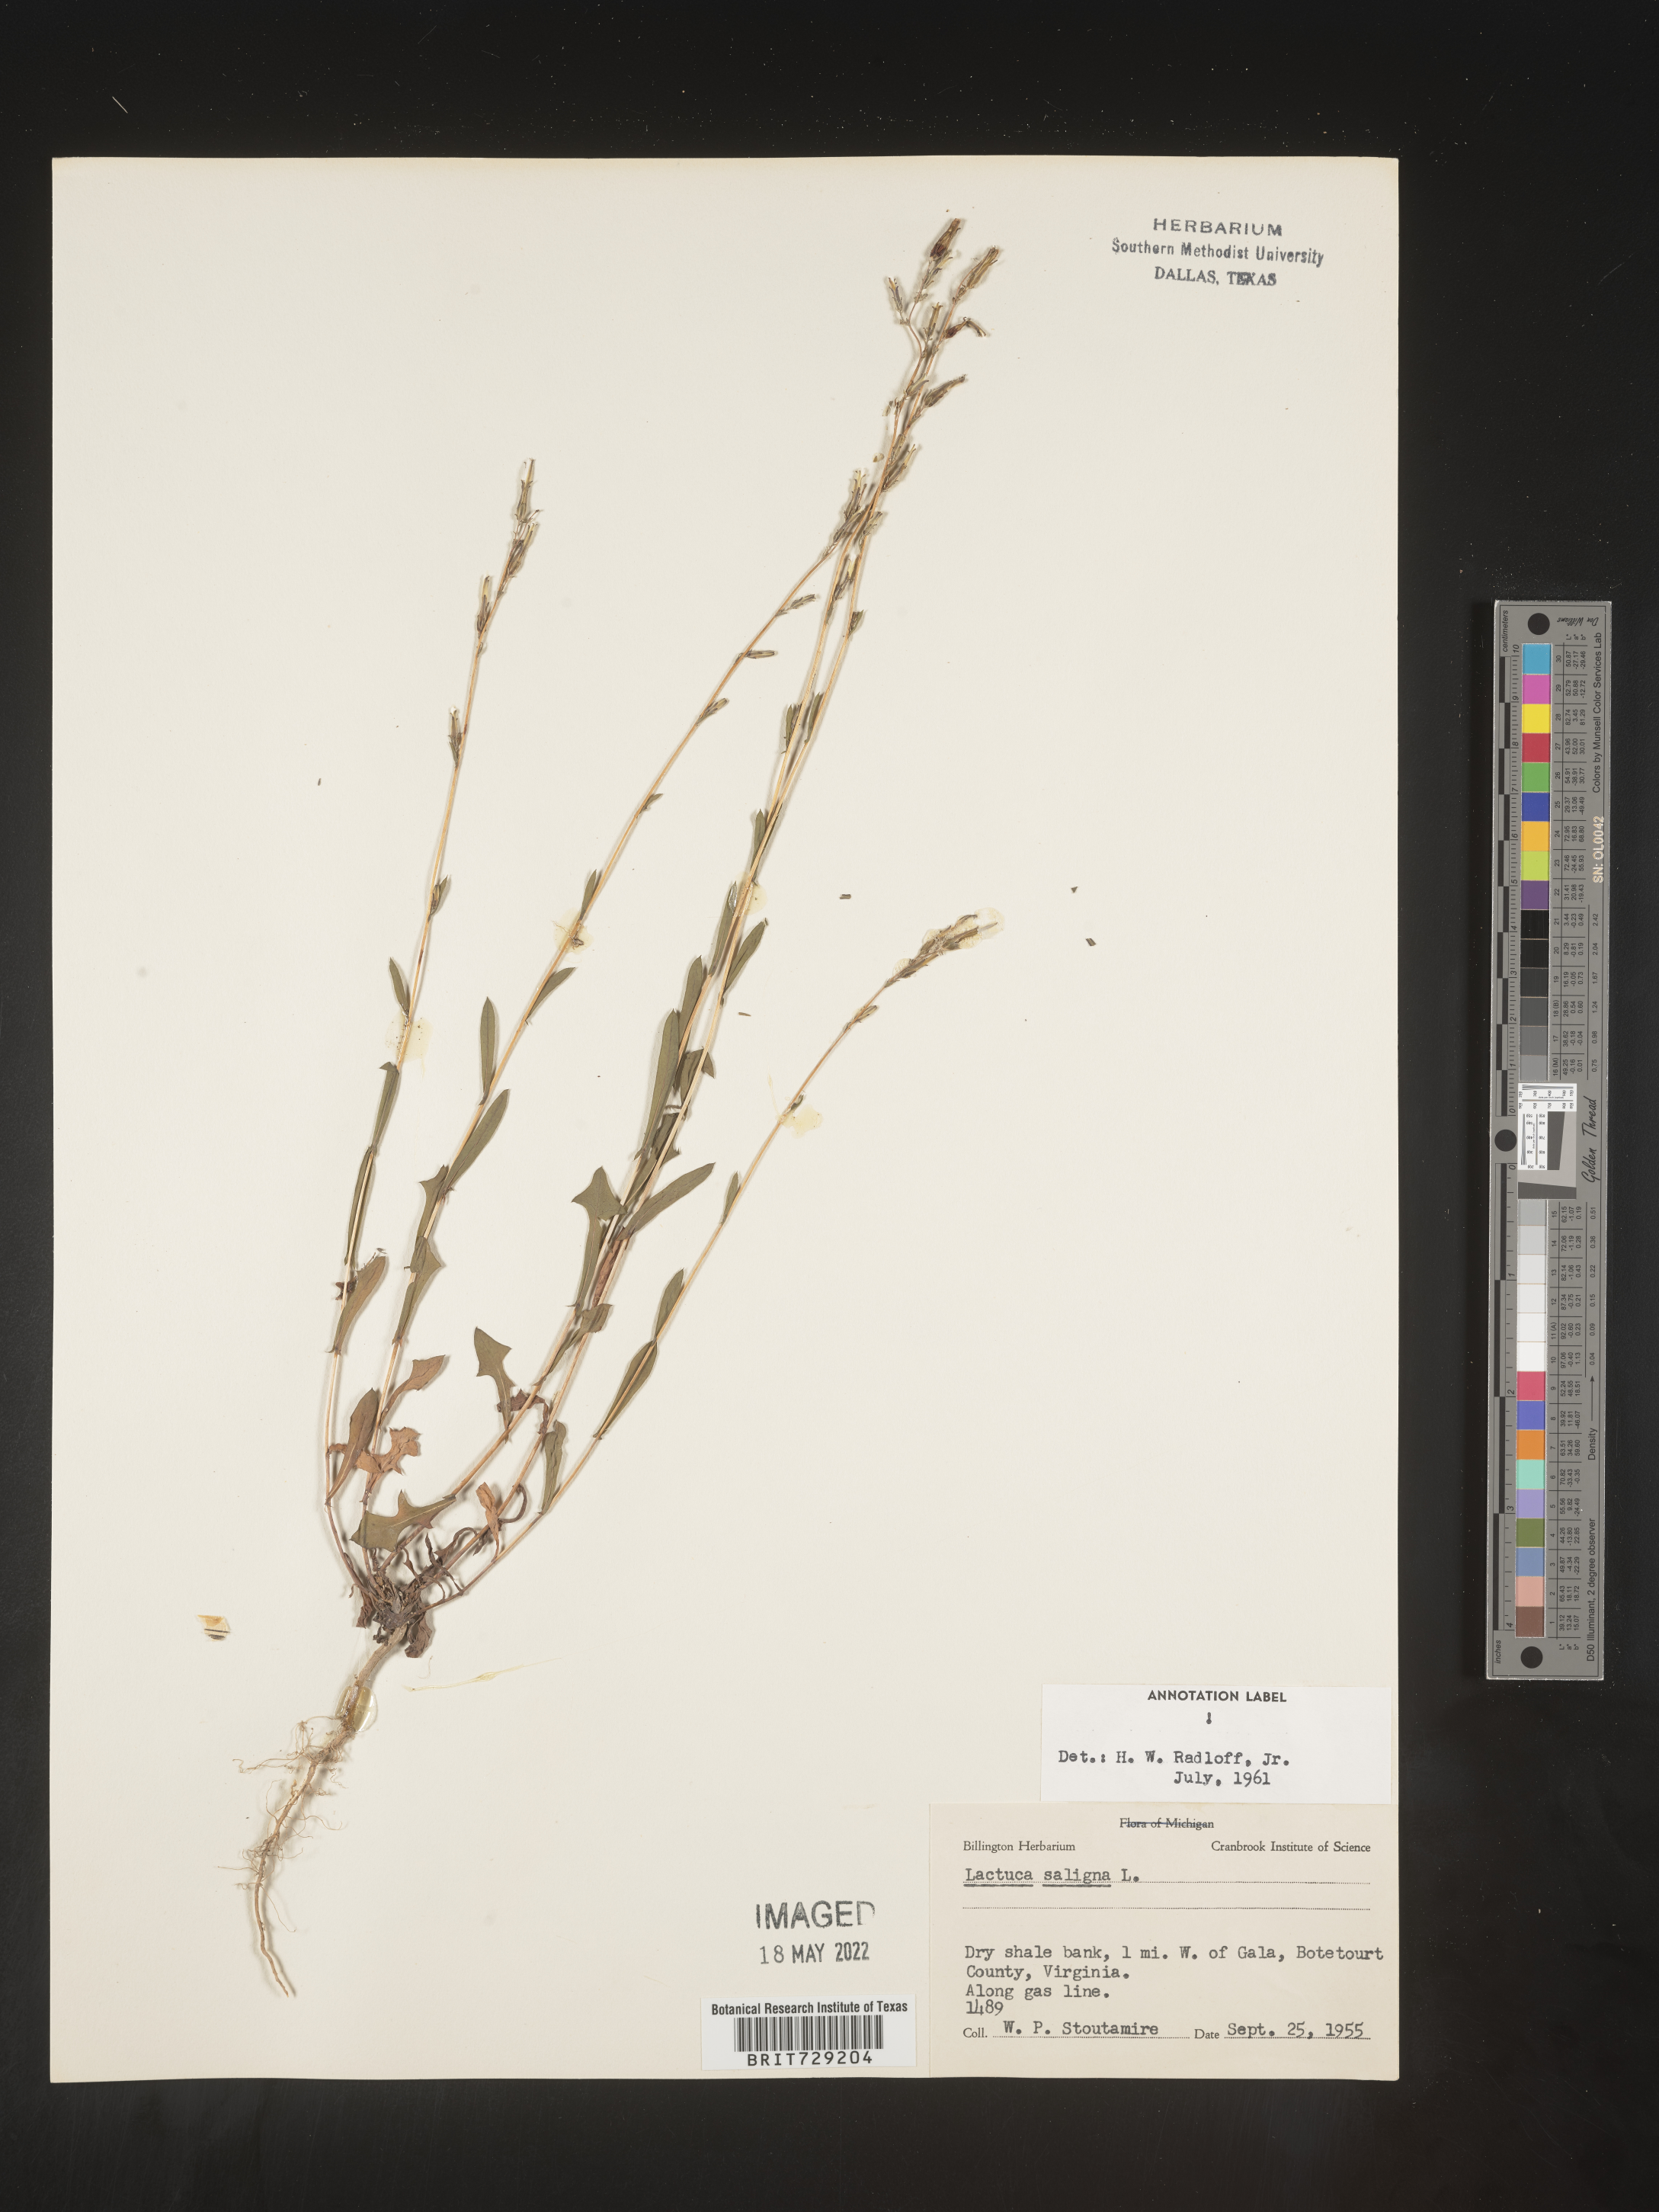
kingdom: Plantae
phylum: Tracheophyta
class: Magnoliopsida
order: Asterales
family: Asteraceae
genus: Lactuca
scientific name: Lactuca saligna
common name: Wild lettuce
